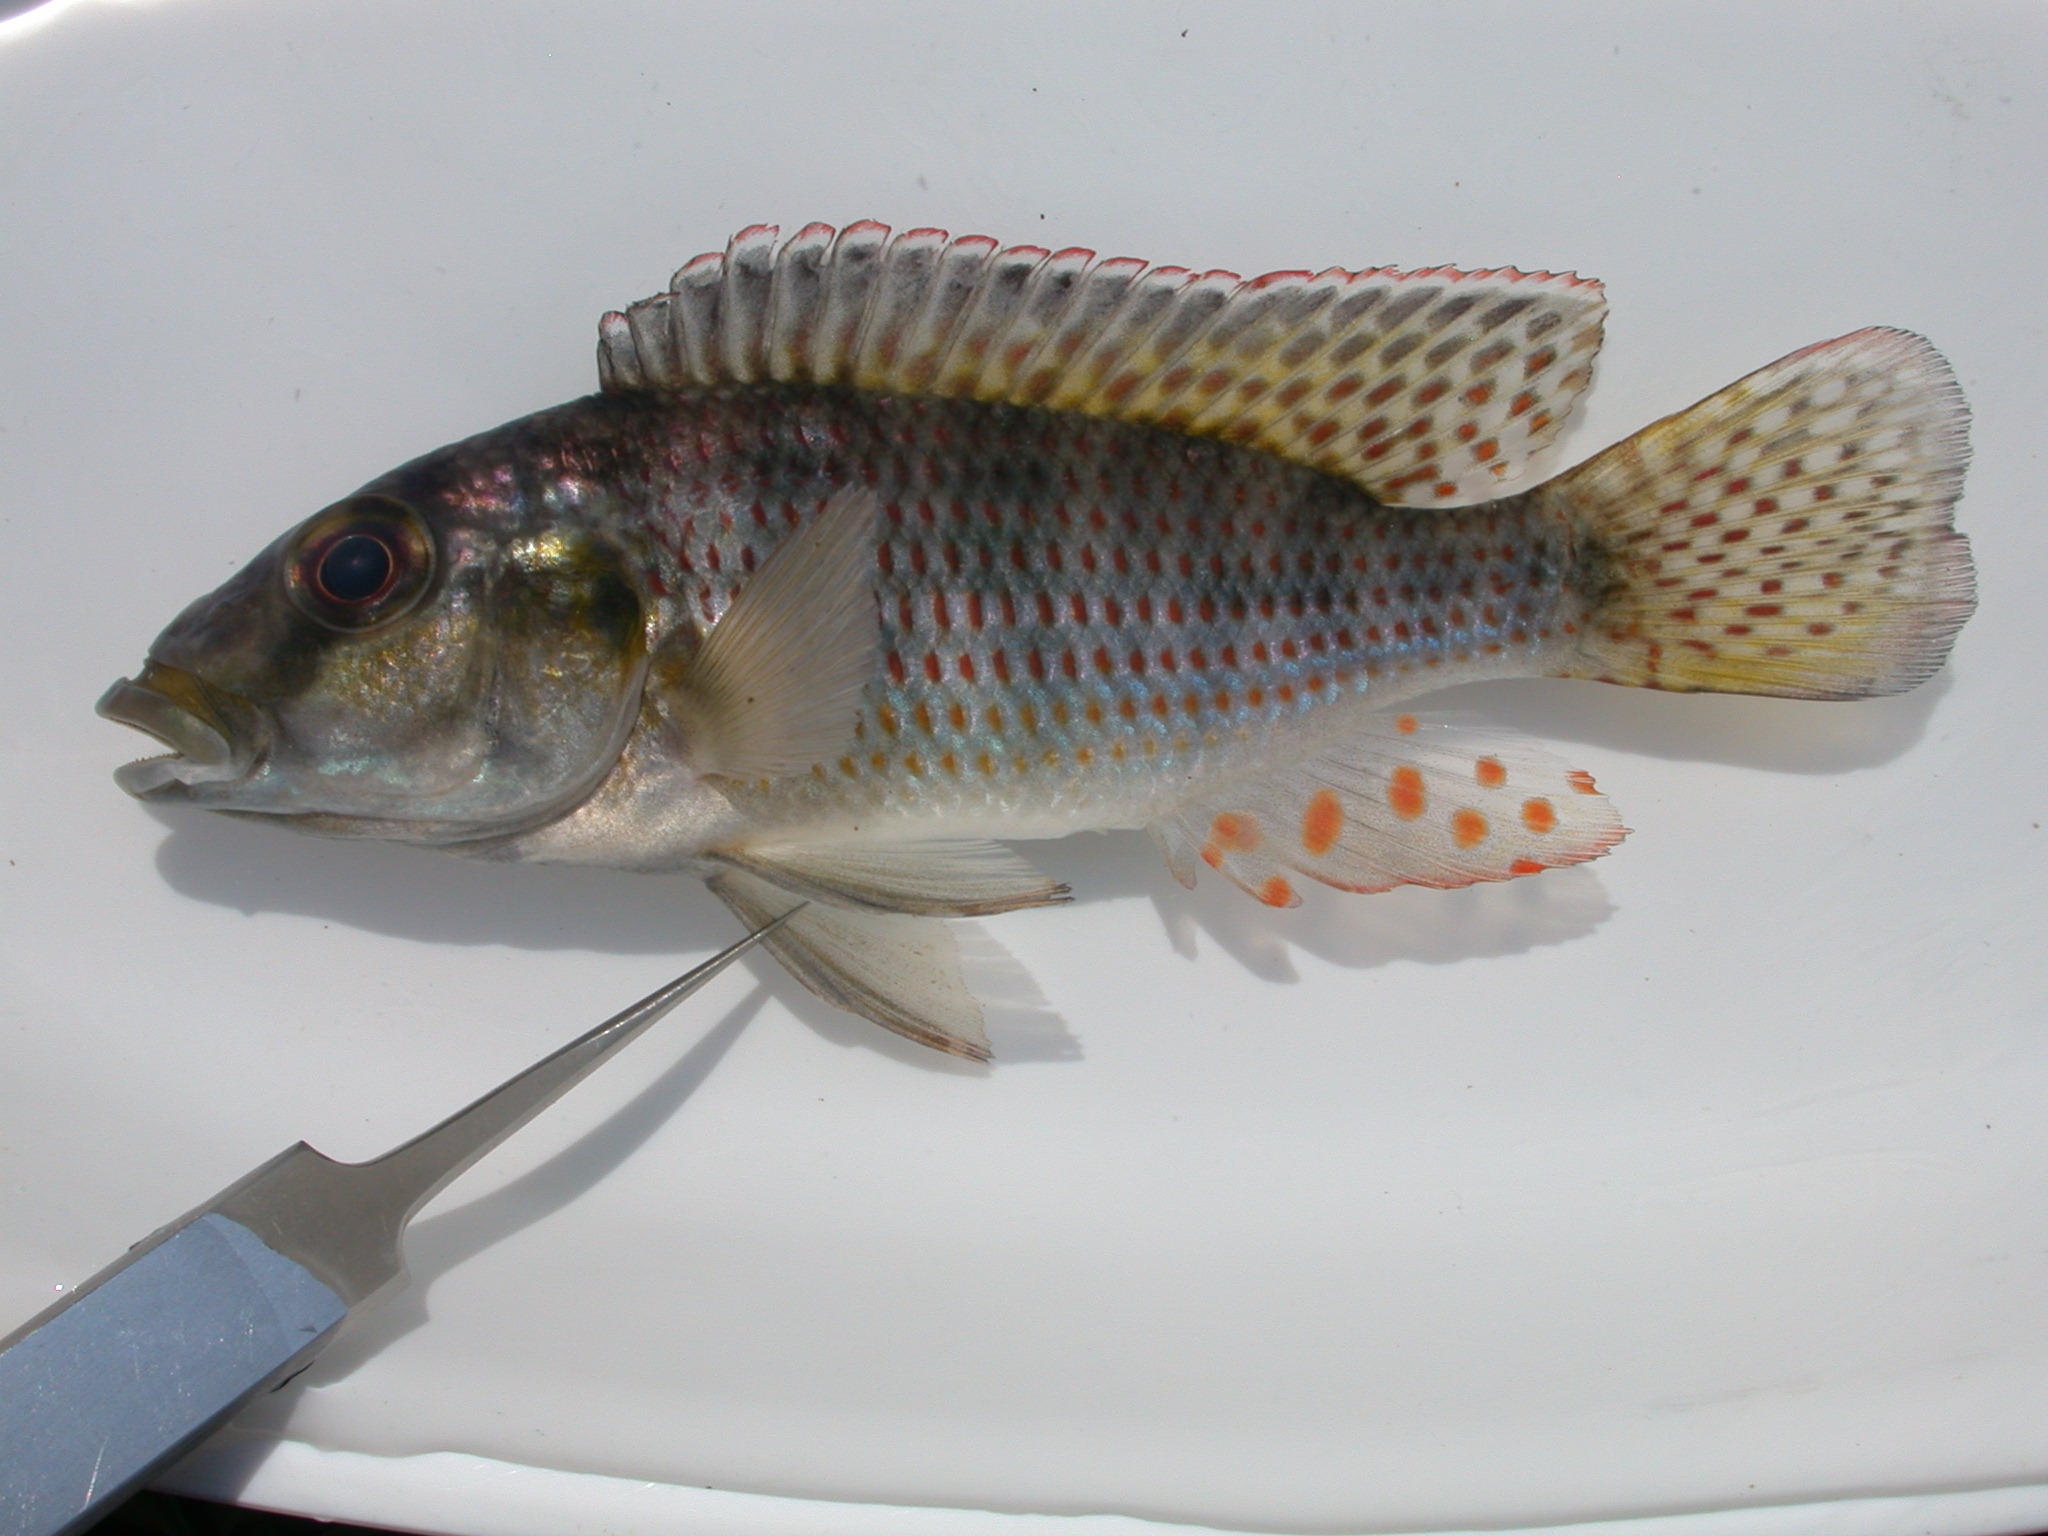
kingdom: Animalia
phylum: Chordata
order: Perciformes
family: Cichlidae
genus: Pharyngochromis
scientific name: Pharyngochromis acuticeps
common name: Zambezi happy
